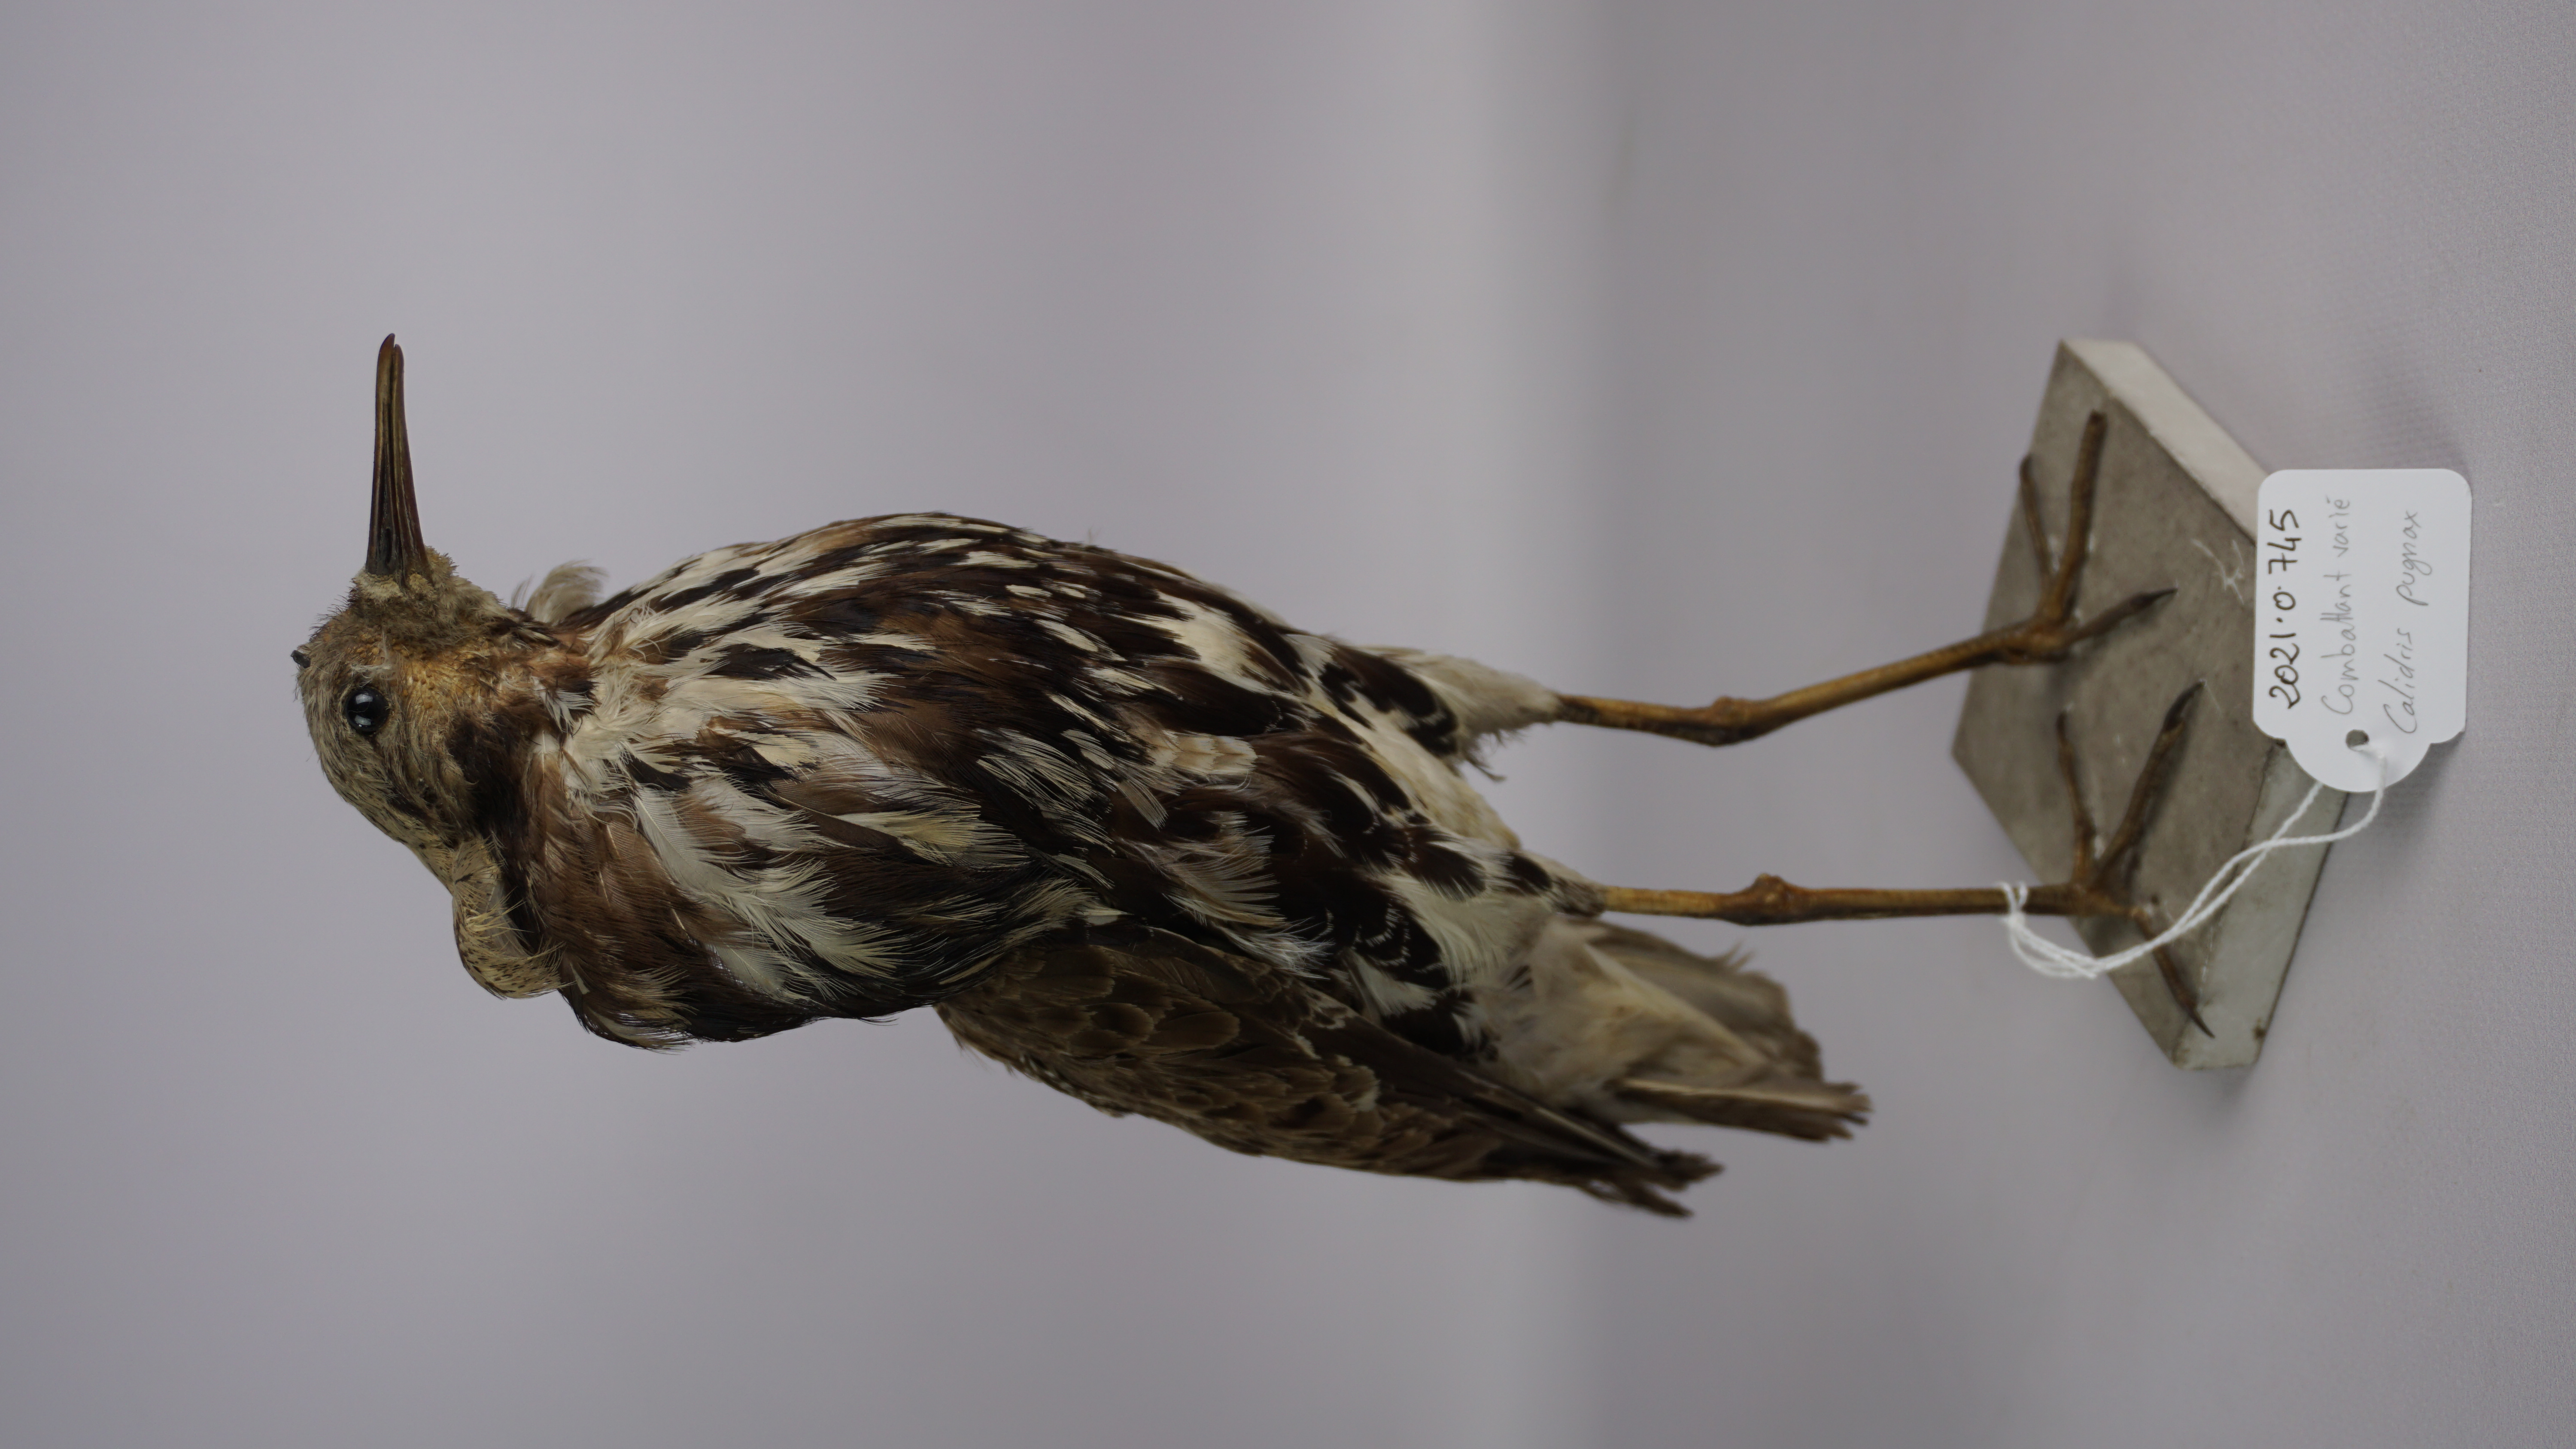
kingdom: Animalia
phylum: Chordata
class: Aves
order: Charadriiformes
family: Scolopacidae
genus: Calidris
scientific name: Calidris pugnax
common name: Ruff
